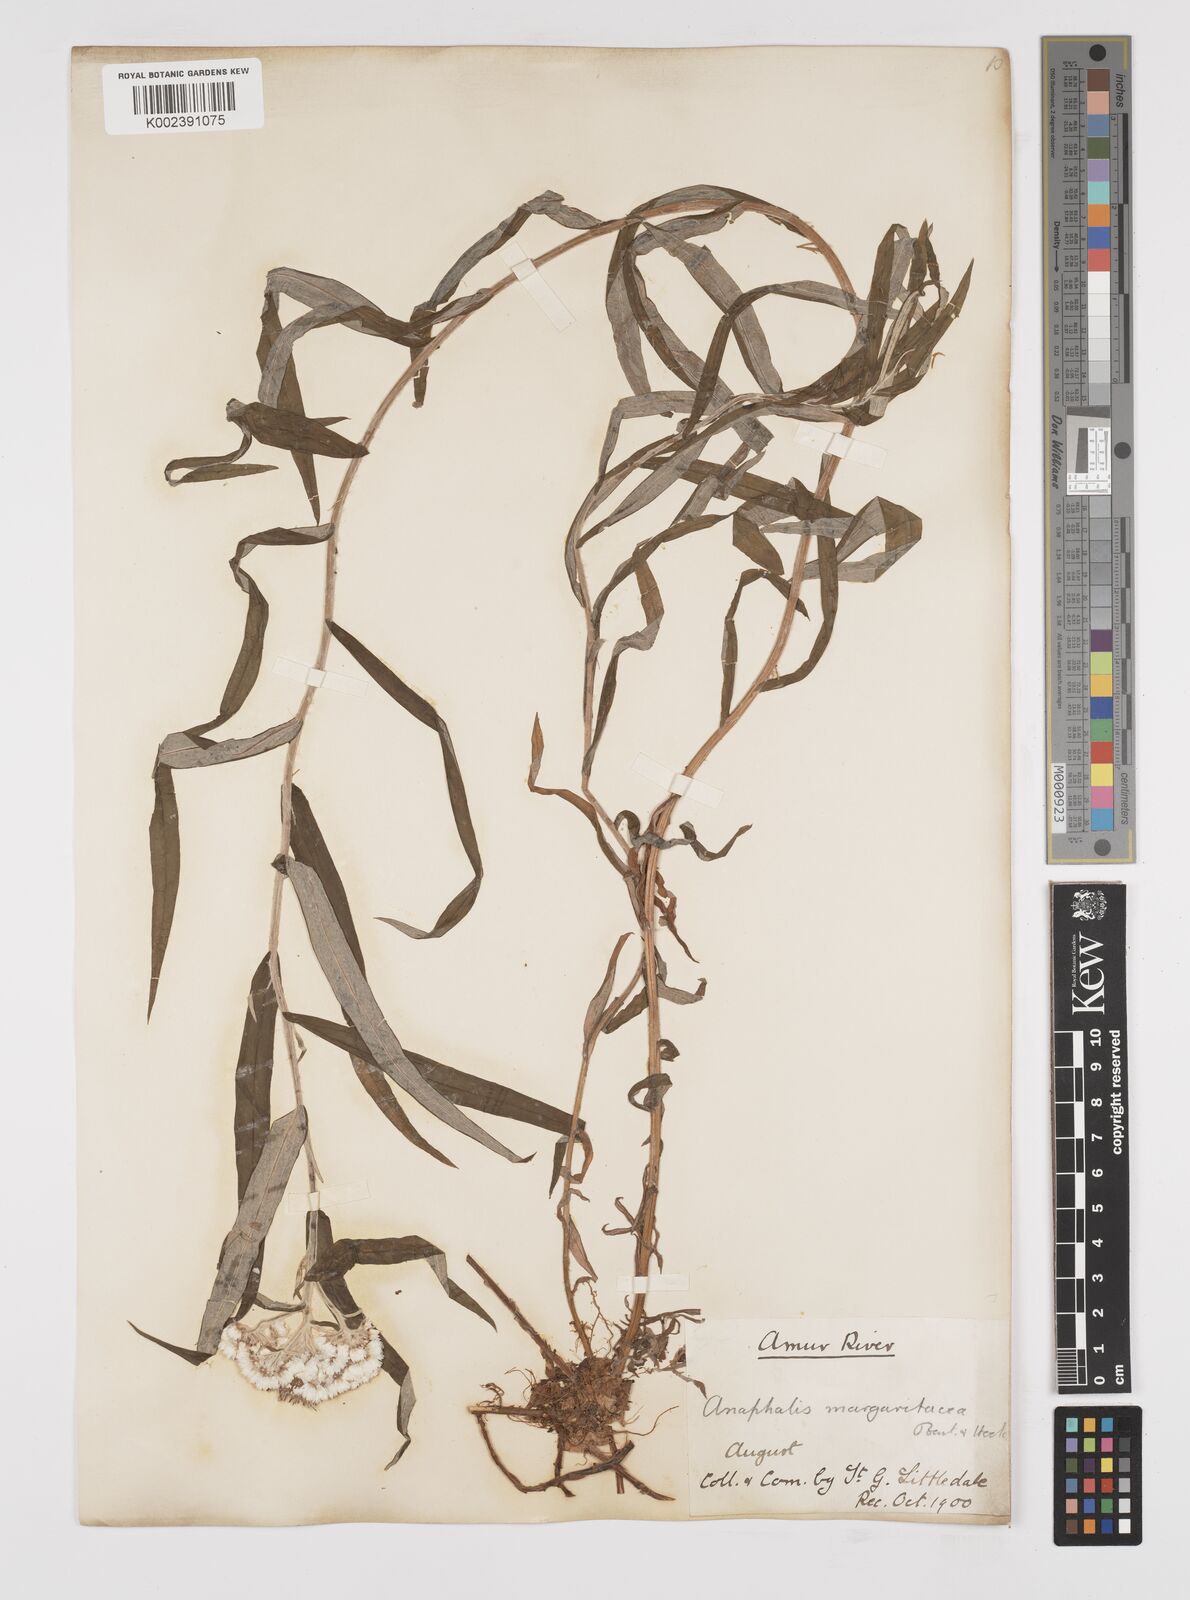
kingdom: Plantae
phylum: Tracheophyta
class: Magnoliopsida
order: Asterales
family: Asteraceae
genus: Anaphalis
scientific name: Anaphalis margaritacea
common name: Pearly everlasting
